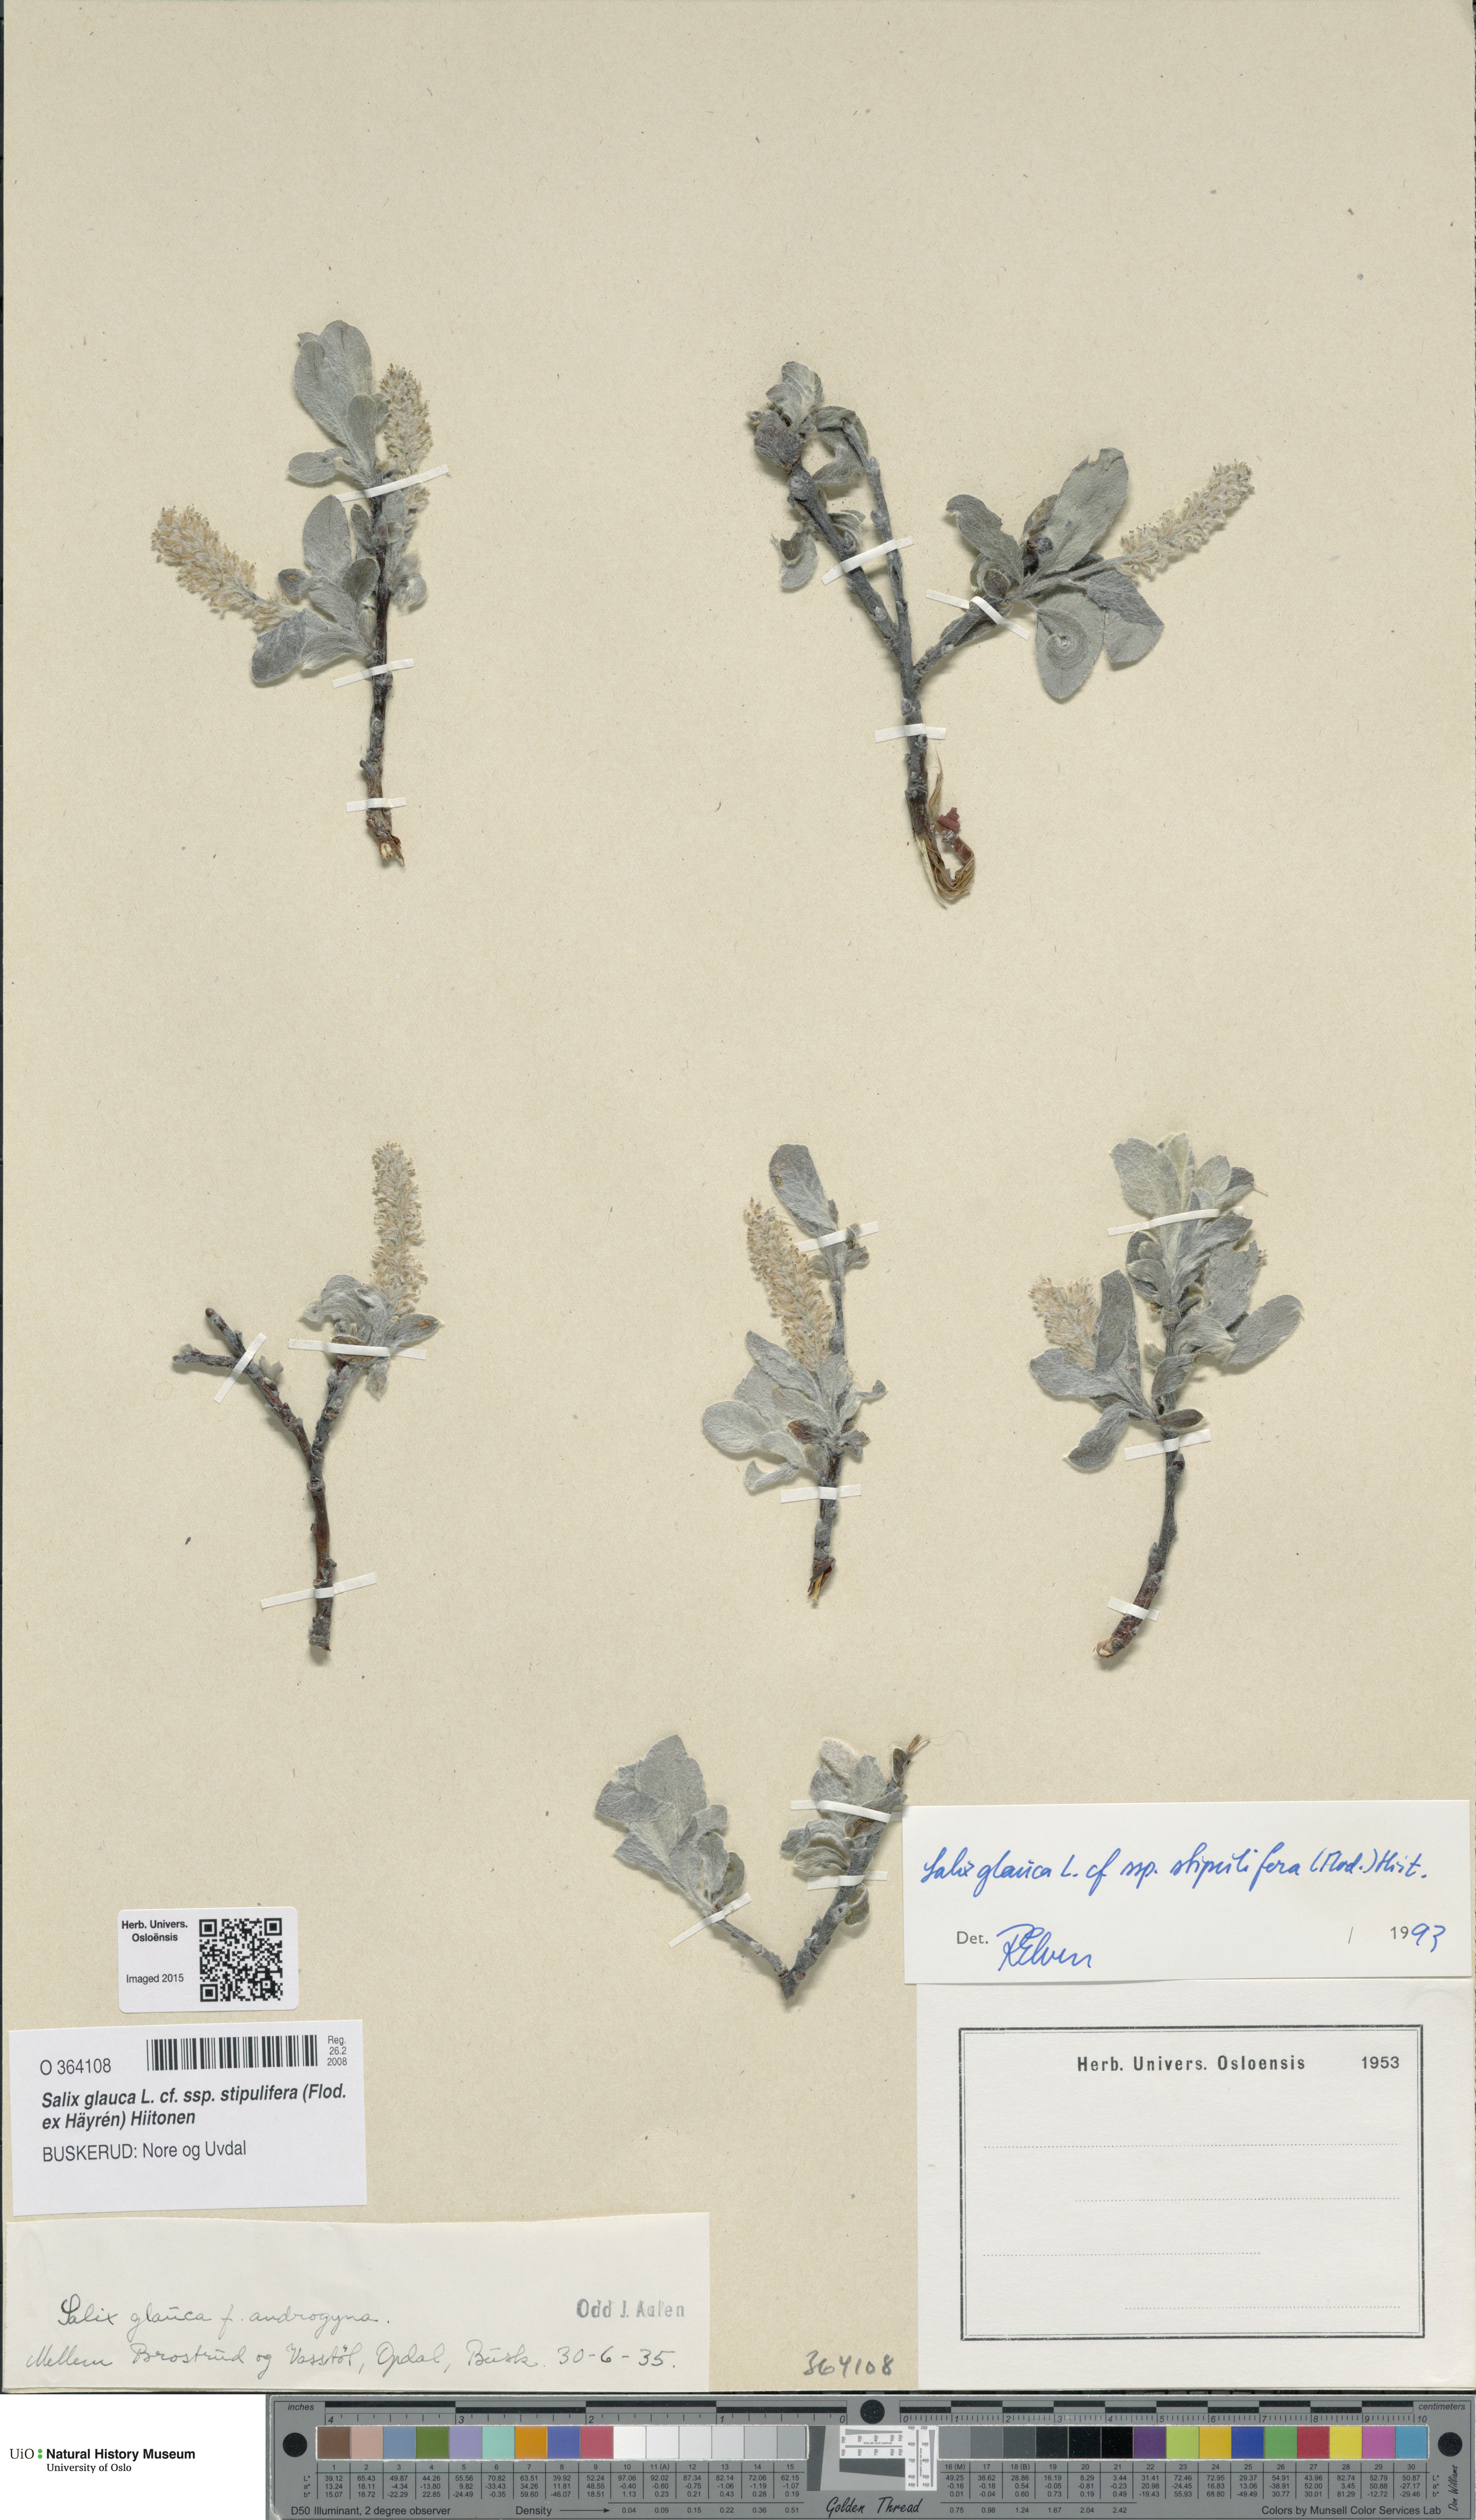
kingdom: Plantae
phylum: Tracheophyta
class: Magnoliopsida
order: Malpighiales
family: Salicaceae
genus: Salix
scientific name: Salix glauca
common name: Glaucous willow
